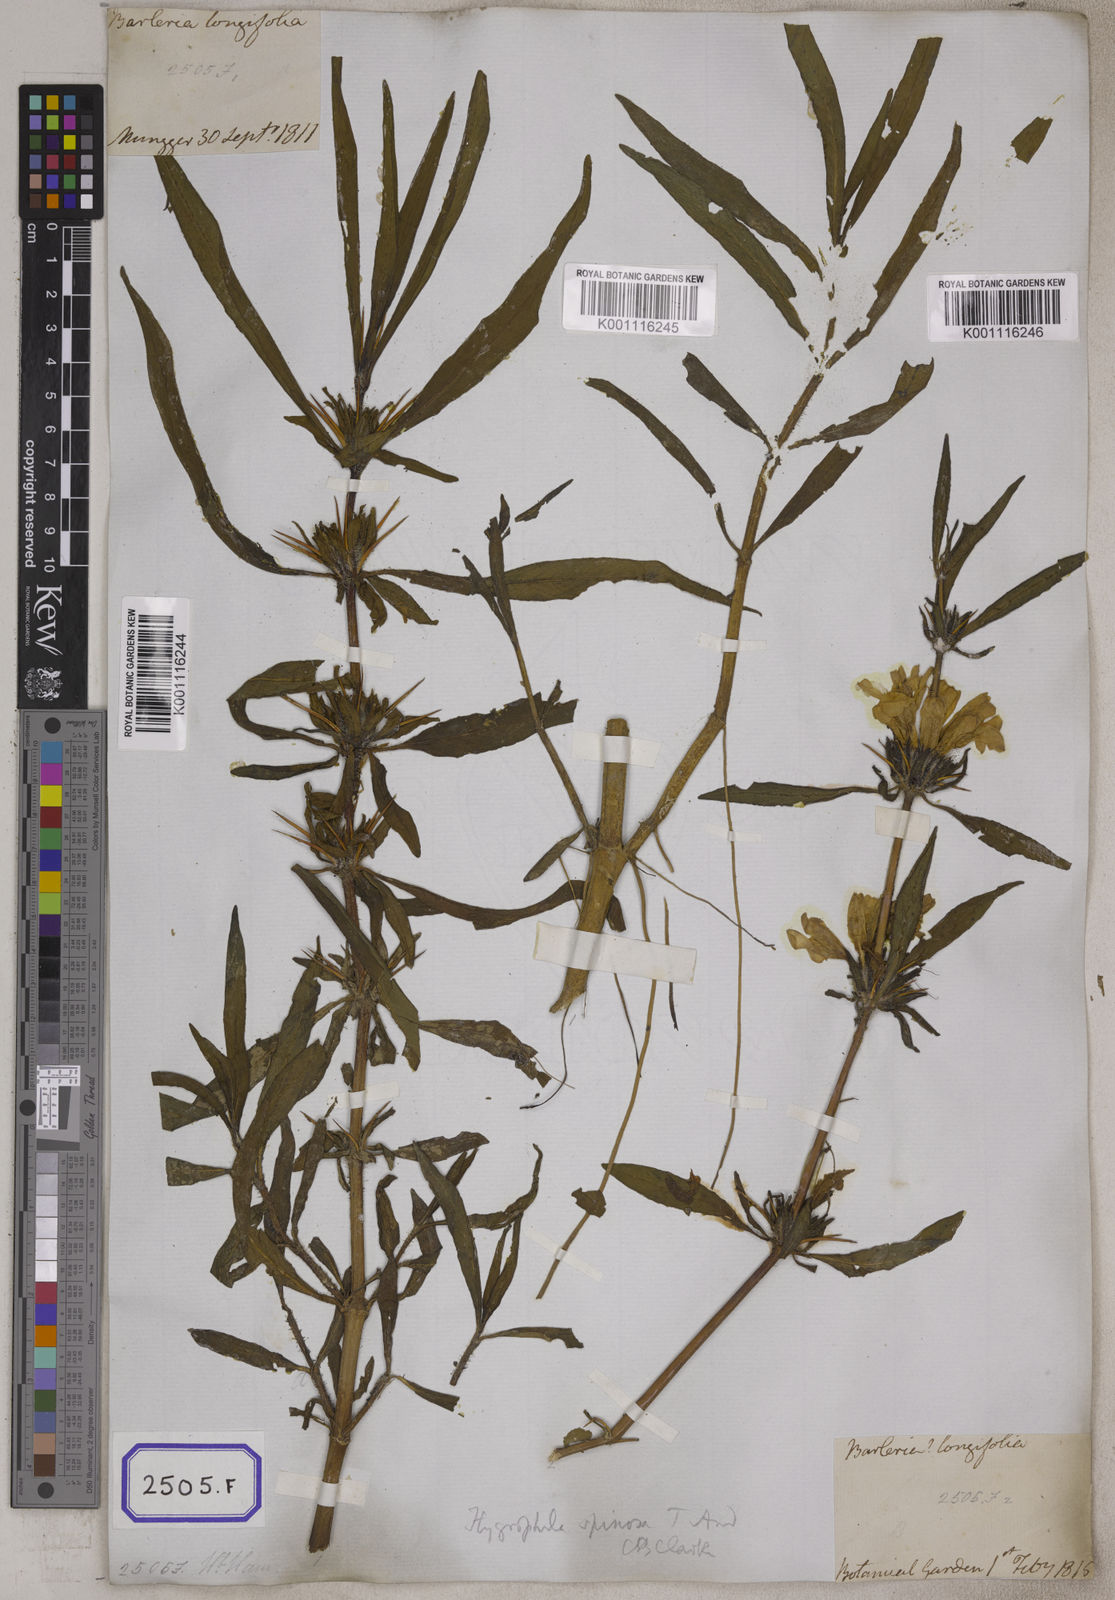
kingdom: Plantae
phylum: Tracheophyta
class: Magnoliopsida
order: Lamiales
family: Acanthaceae
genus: Barleria
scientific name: Barleria longiflora
